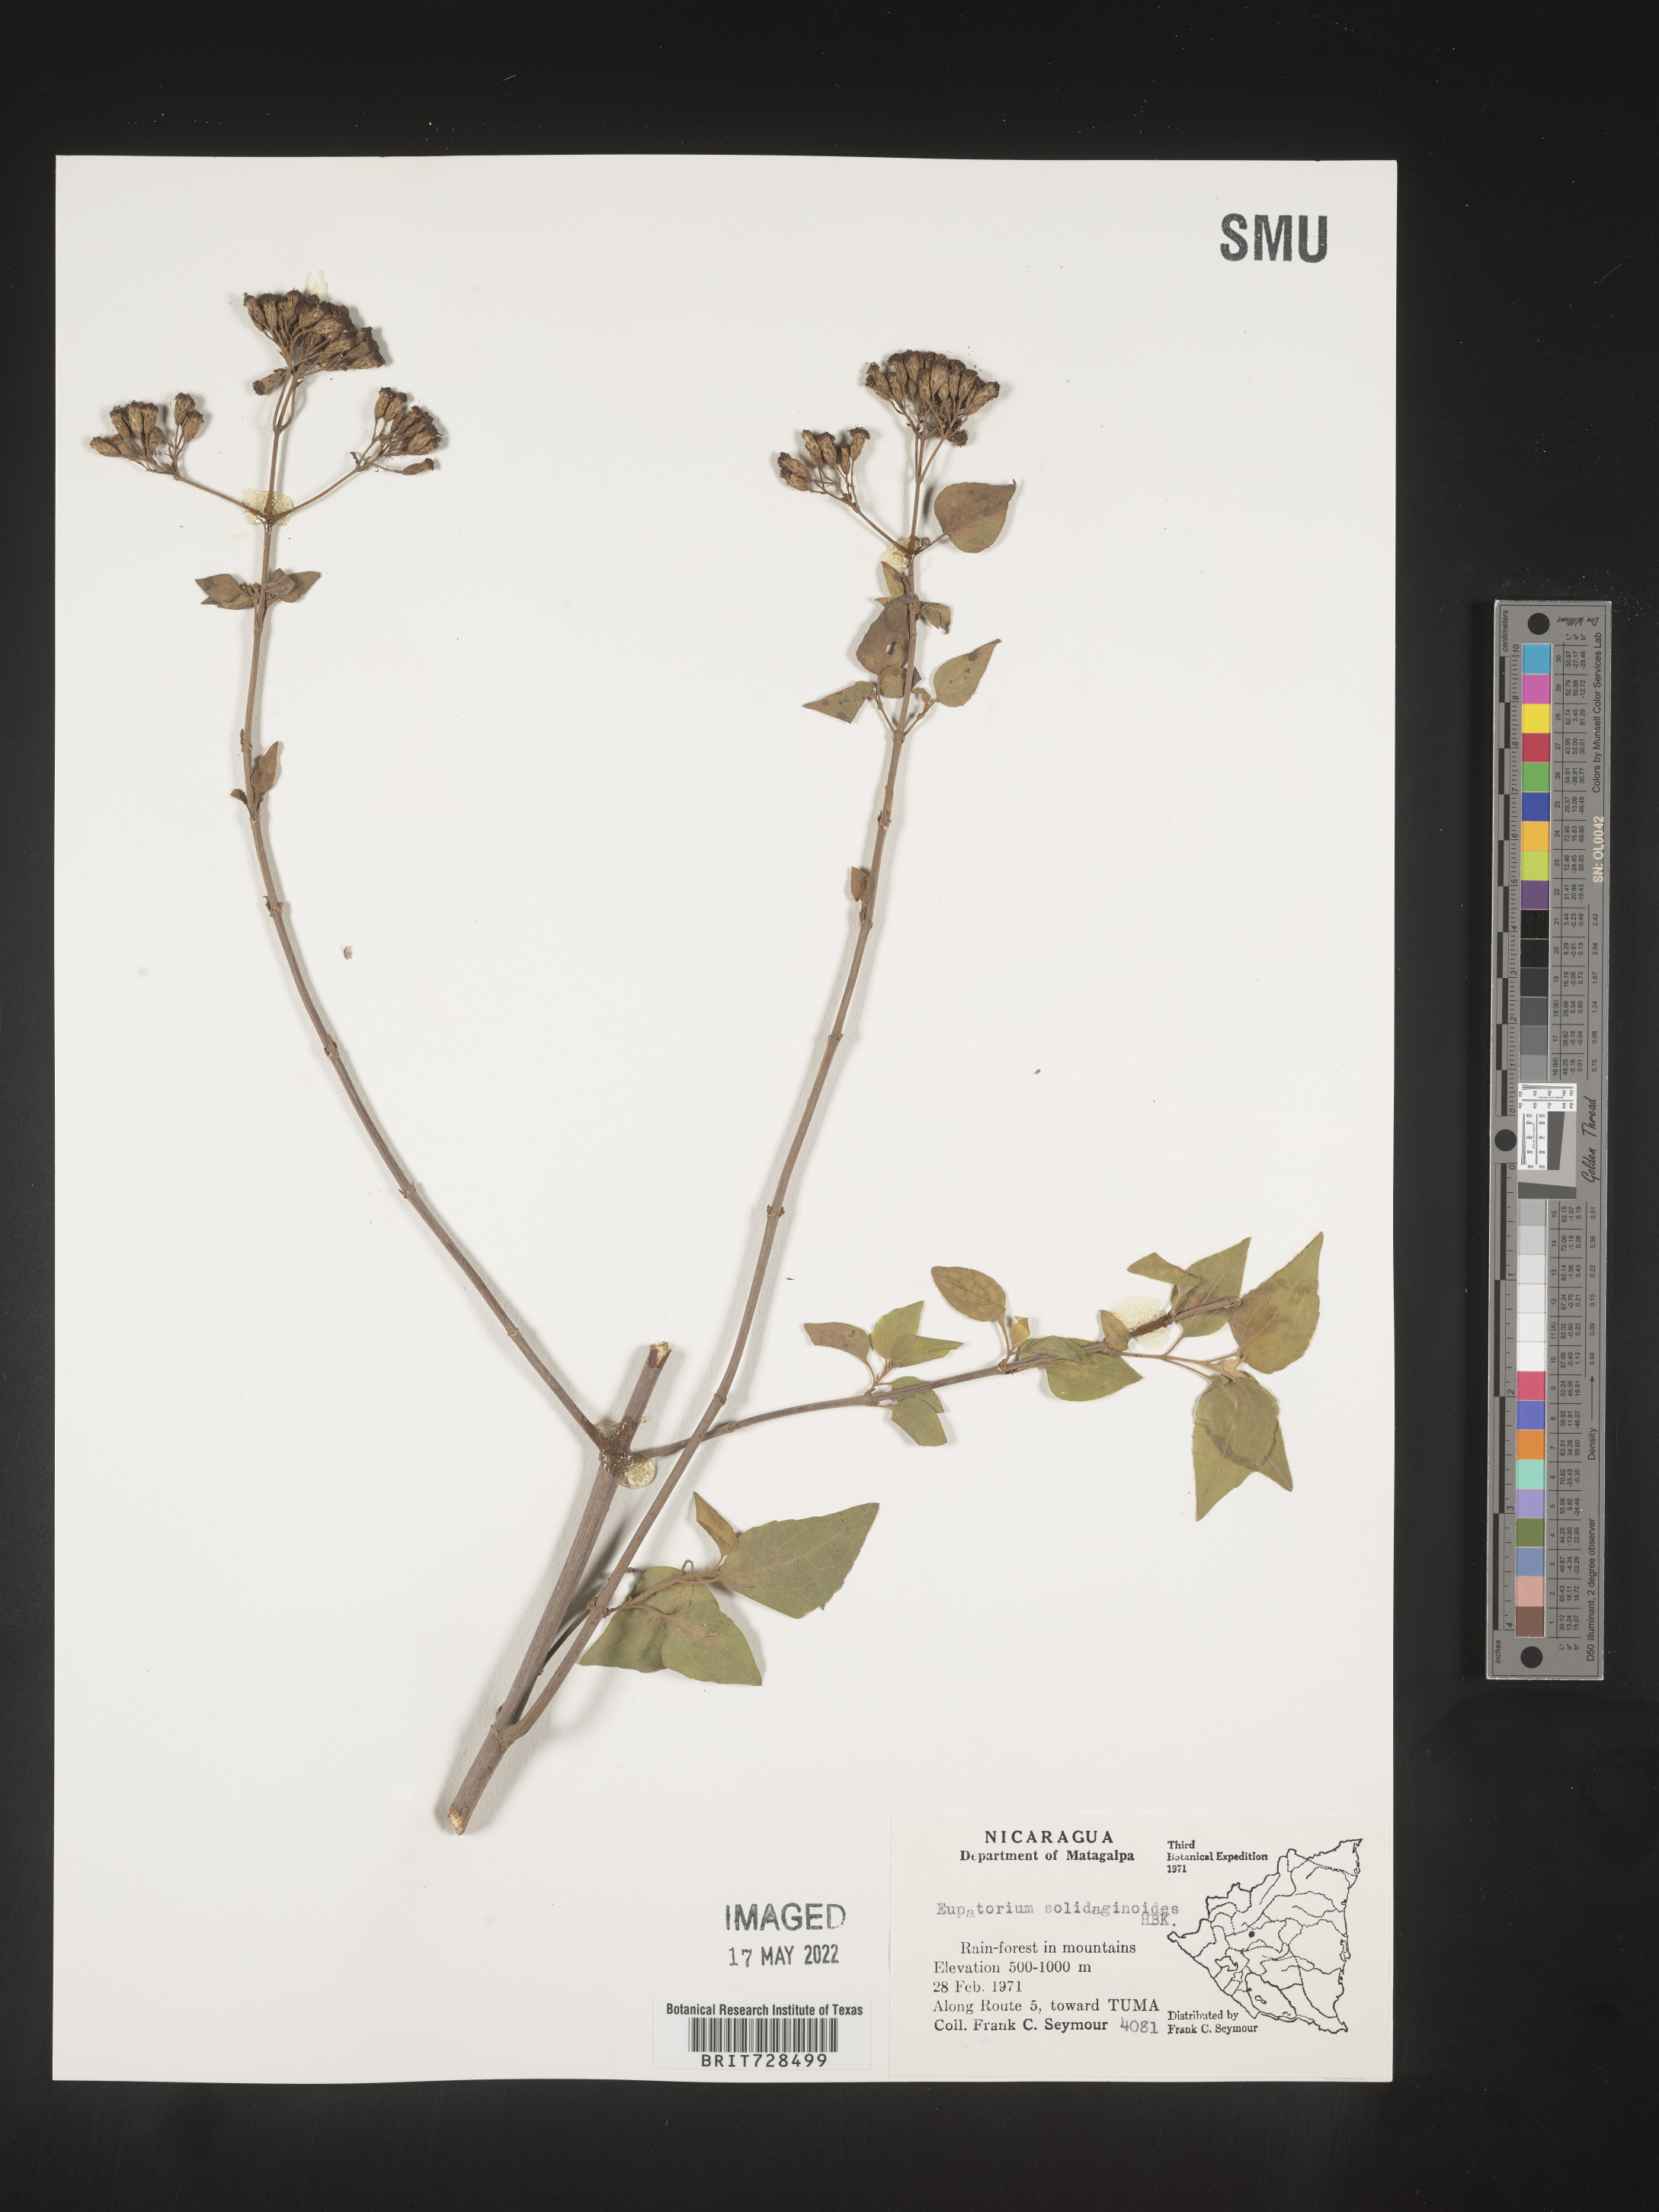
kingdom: Plantae
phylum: Tracheophyta
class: Magnoliopsida
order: Asterales
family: Asteraceae
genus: Koanophyllon
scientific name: Koanophyllon
